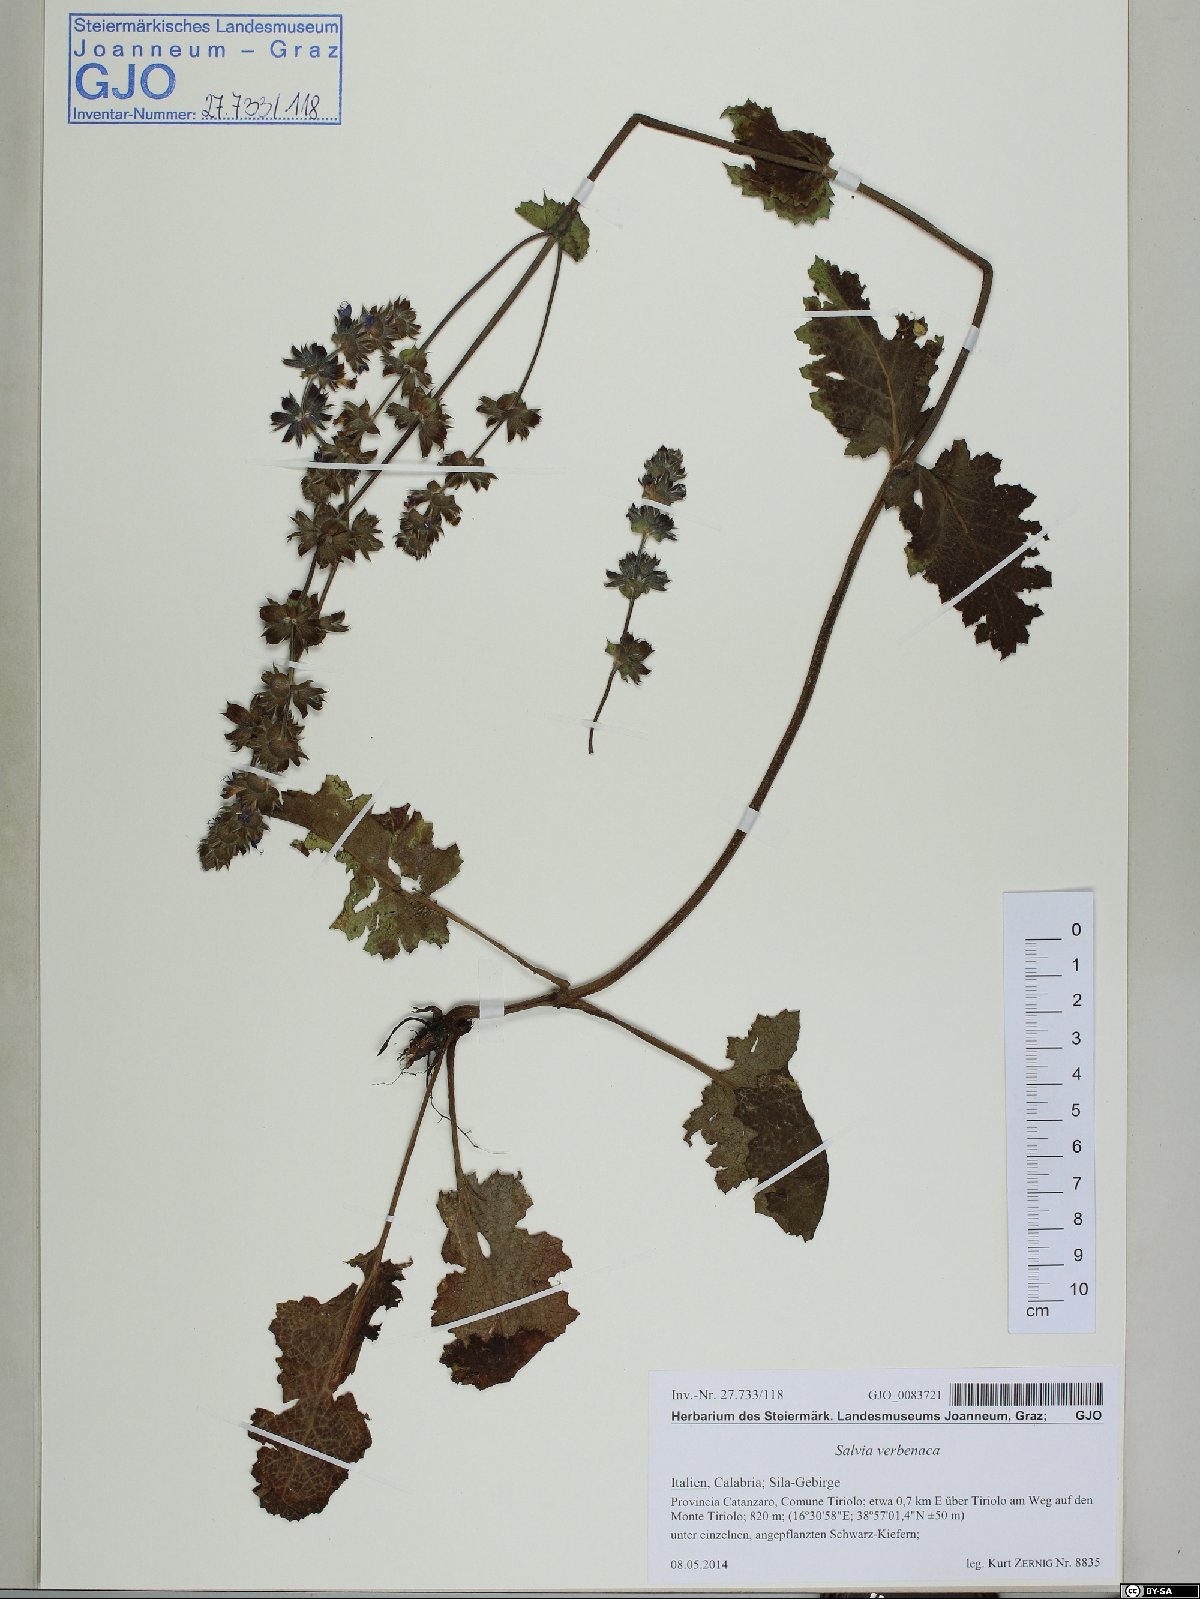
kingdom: Plantae
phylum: Tracheophyta
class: Magnoliopsida
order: Lamiales
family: Lamiaceae
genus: Salvia
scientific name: Salvia verbenaca
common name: Wild clary
